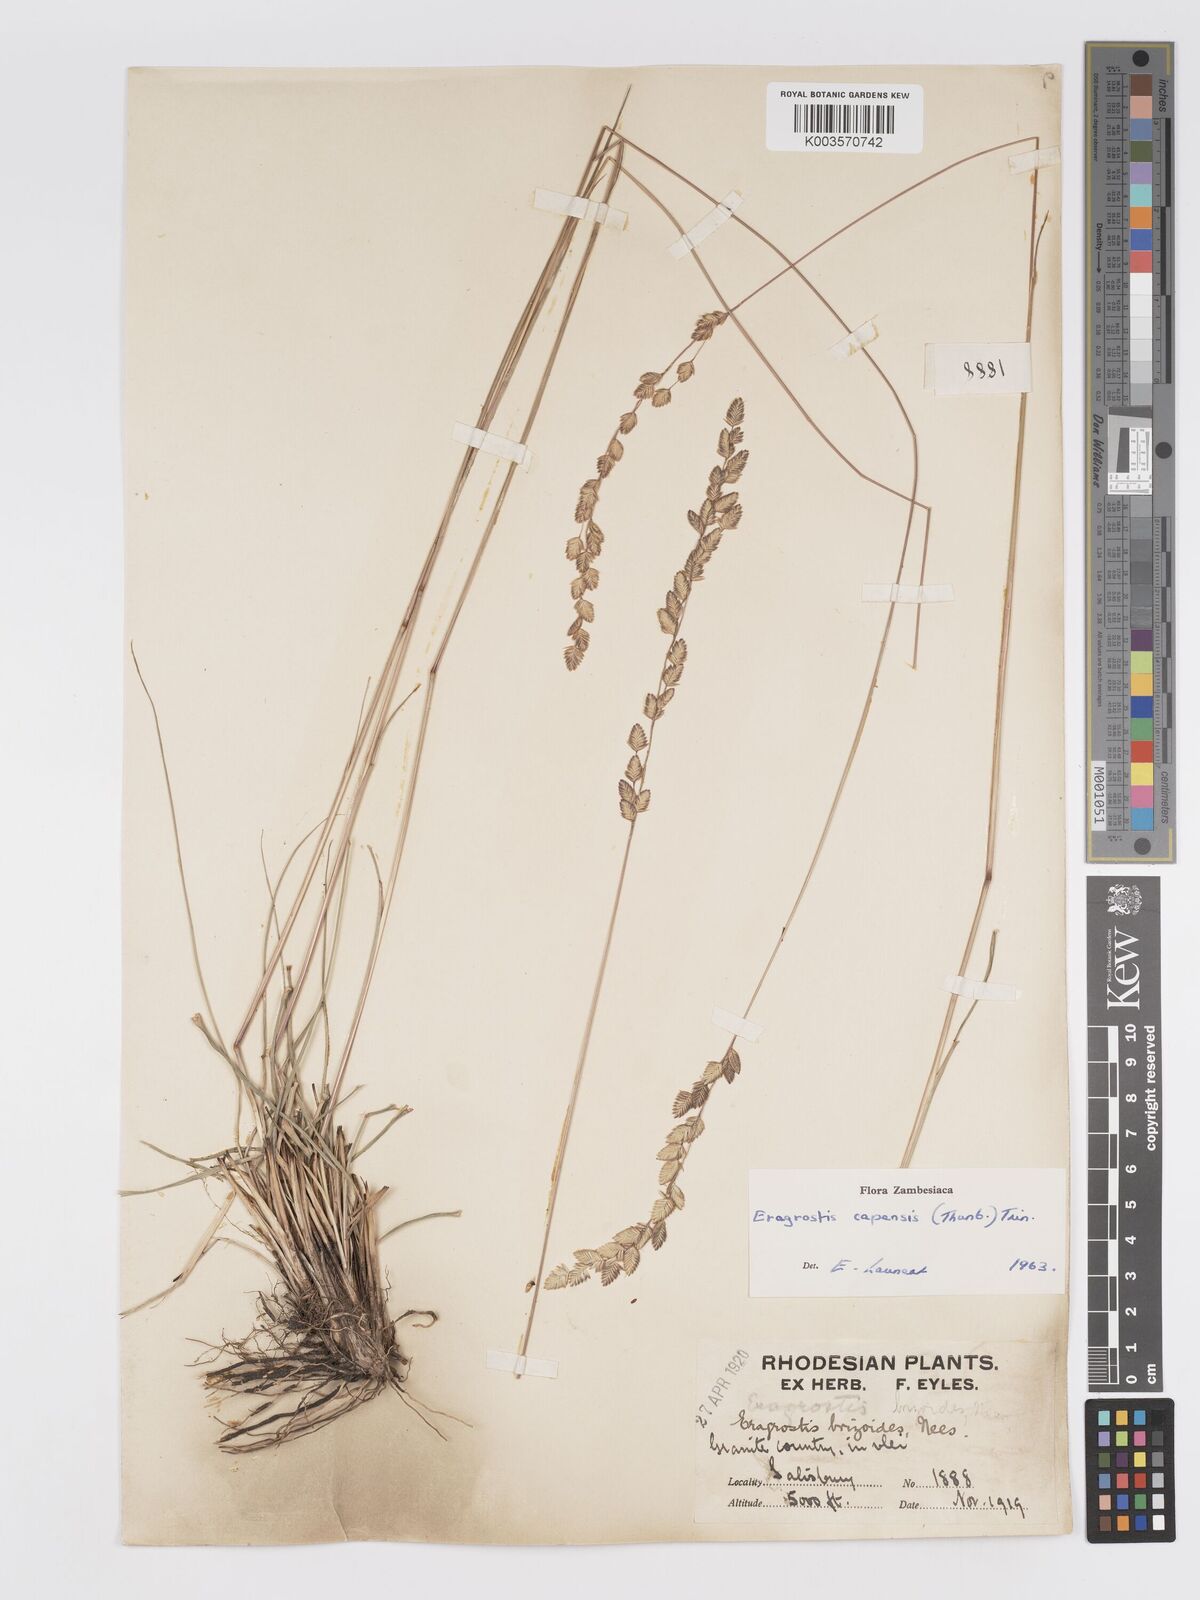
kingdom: Plantae
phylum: Tracheophyta
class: Liliopsida
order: Poales
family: Poaceae
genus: Eragrostis
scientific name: Eragrostis capensis
